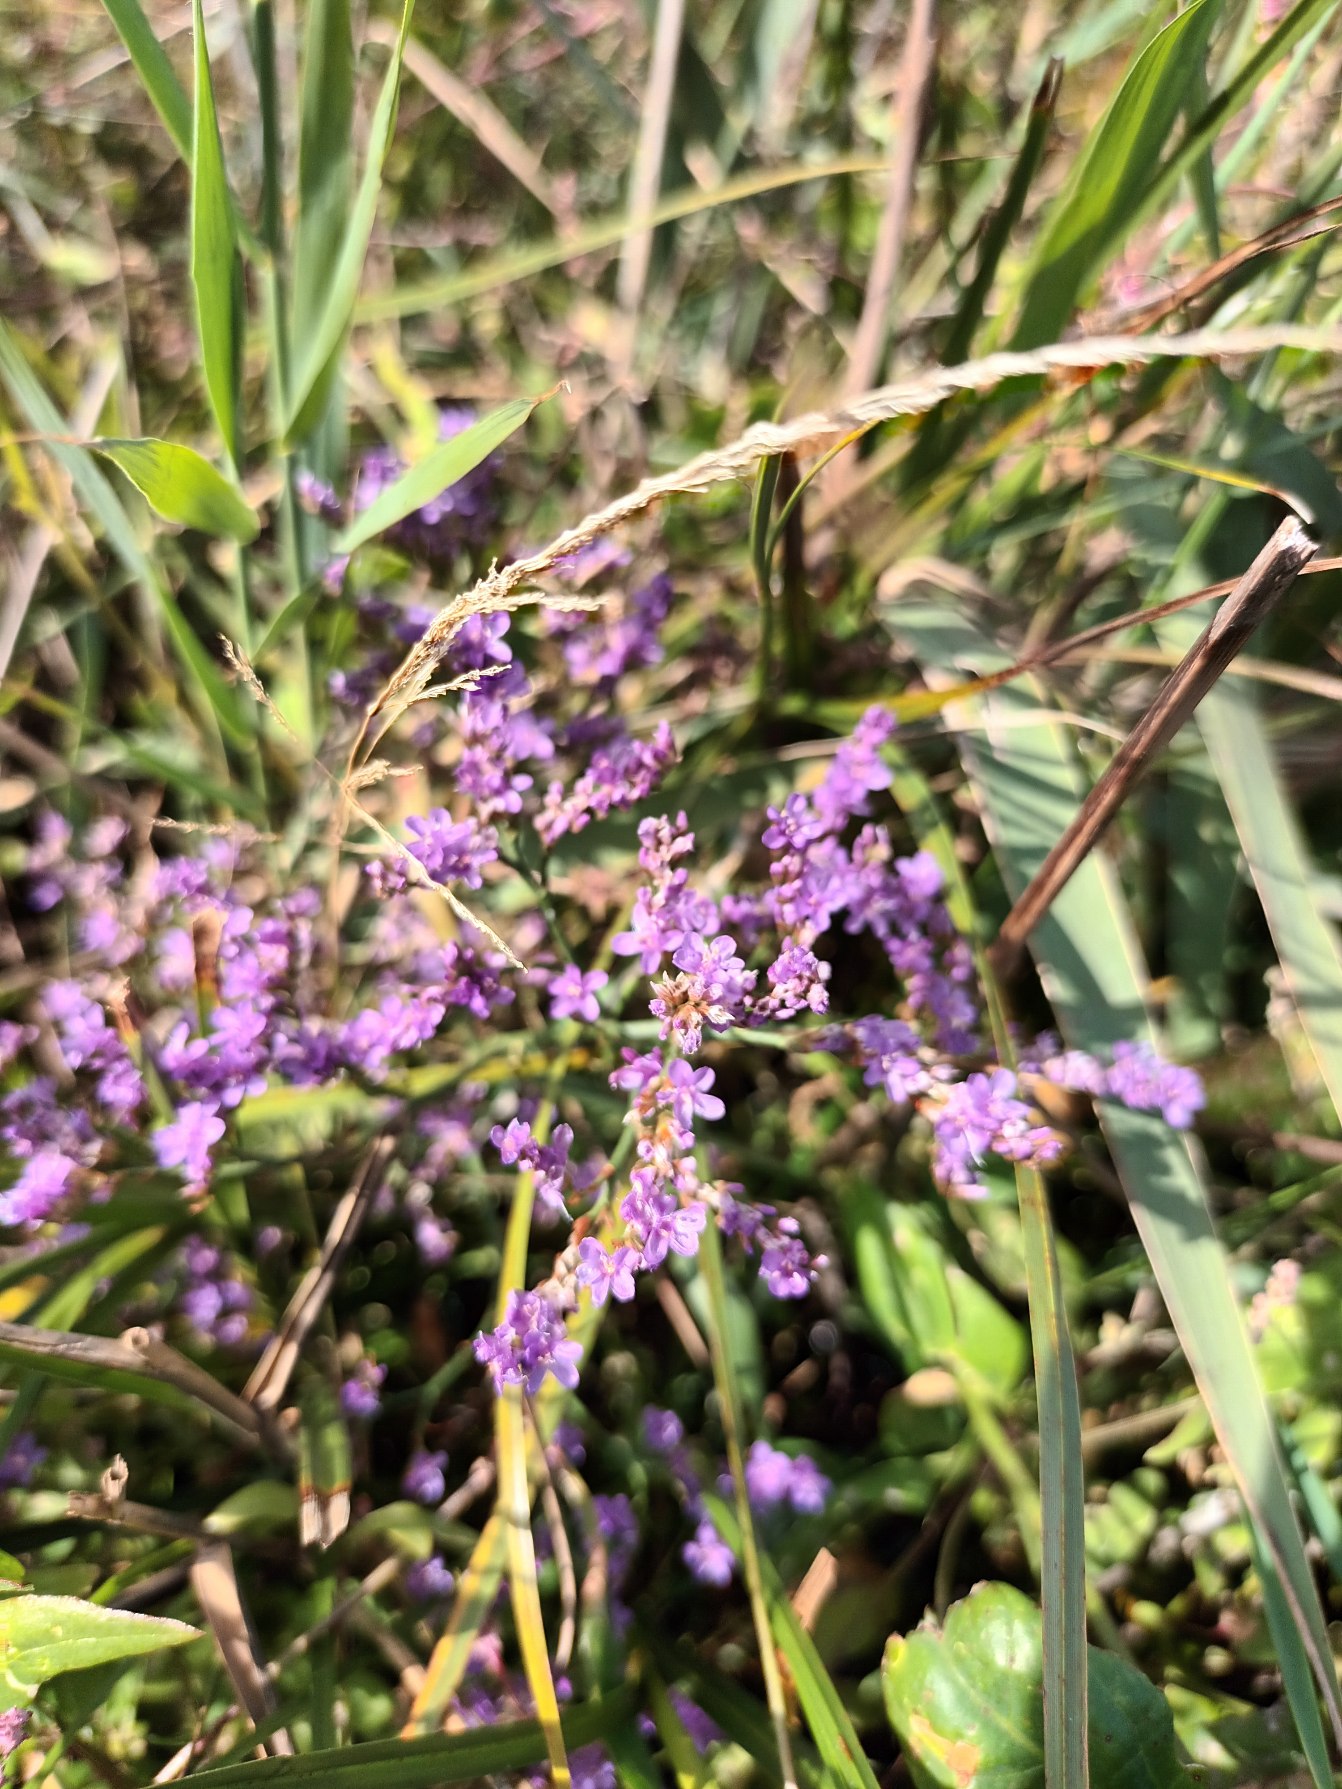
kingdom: Plantae
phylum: Tracheophyta
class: Magnoliopsida
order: Caryophyllales
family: Plumbaginaceae
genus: Limonium
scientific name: Limonium vulgare
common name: Tætblomstret hindebæger
